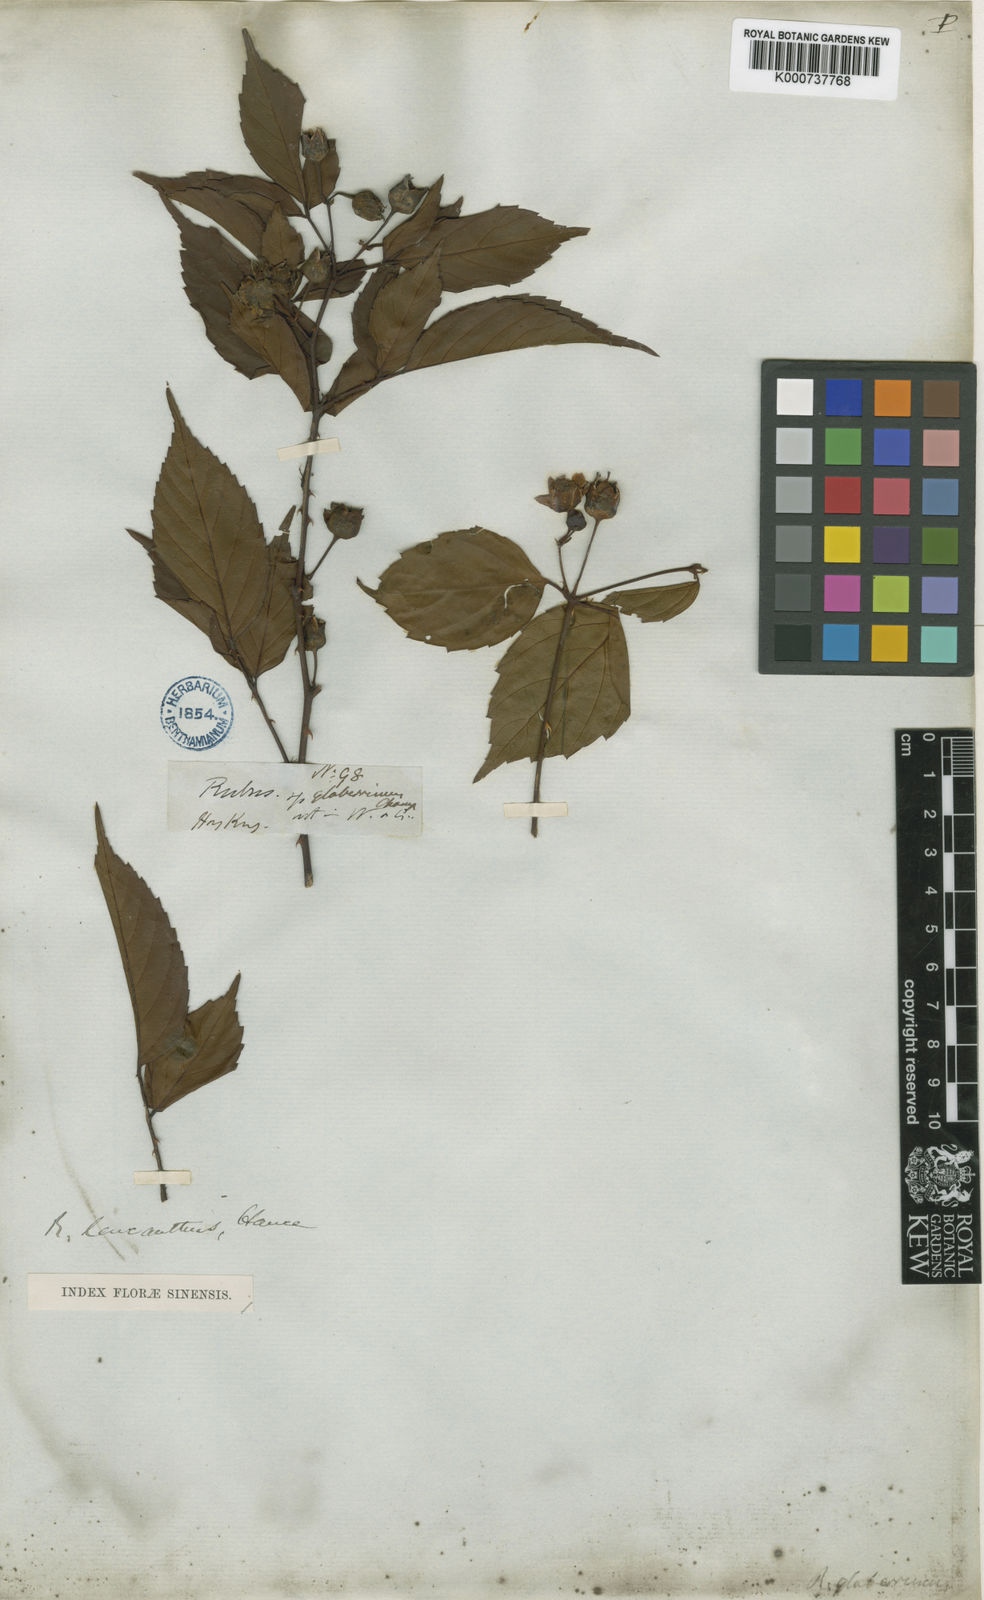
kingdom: Plantae
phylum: Tracheophyta
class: Magnoliopsida
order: Rosales
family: Rosaceae
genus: Rubus
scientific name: Rubus leucanthus
